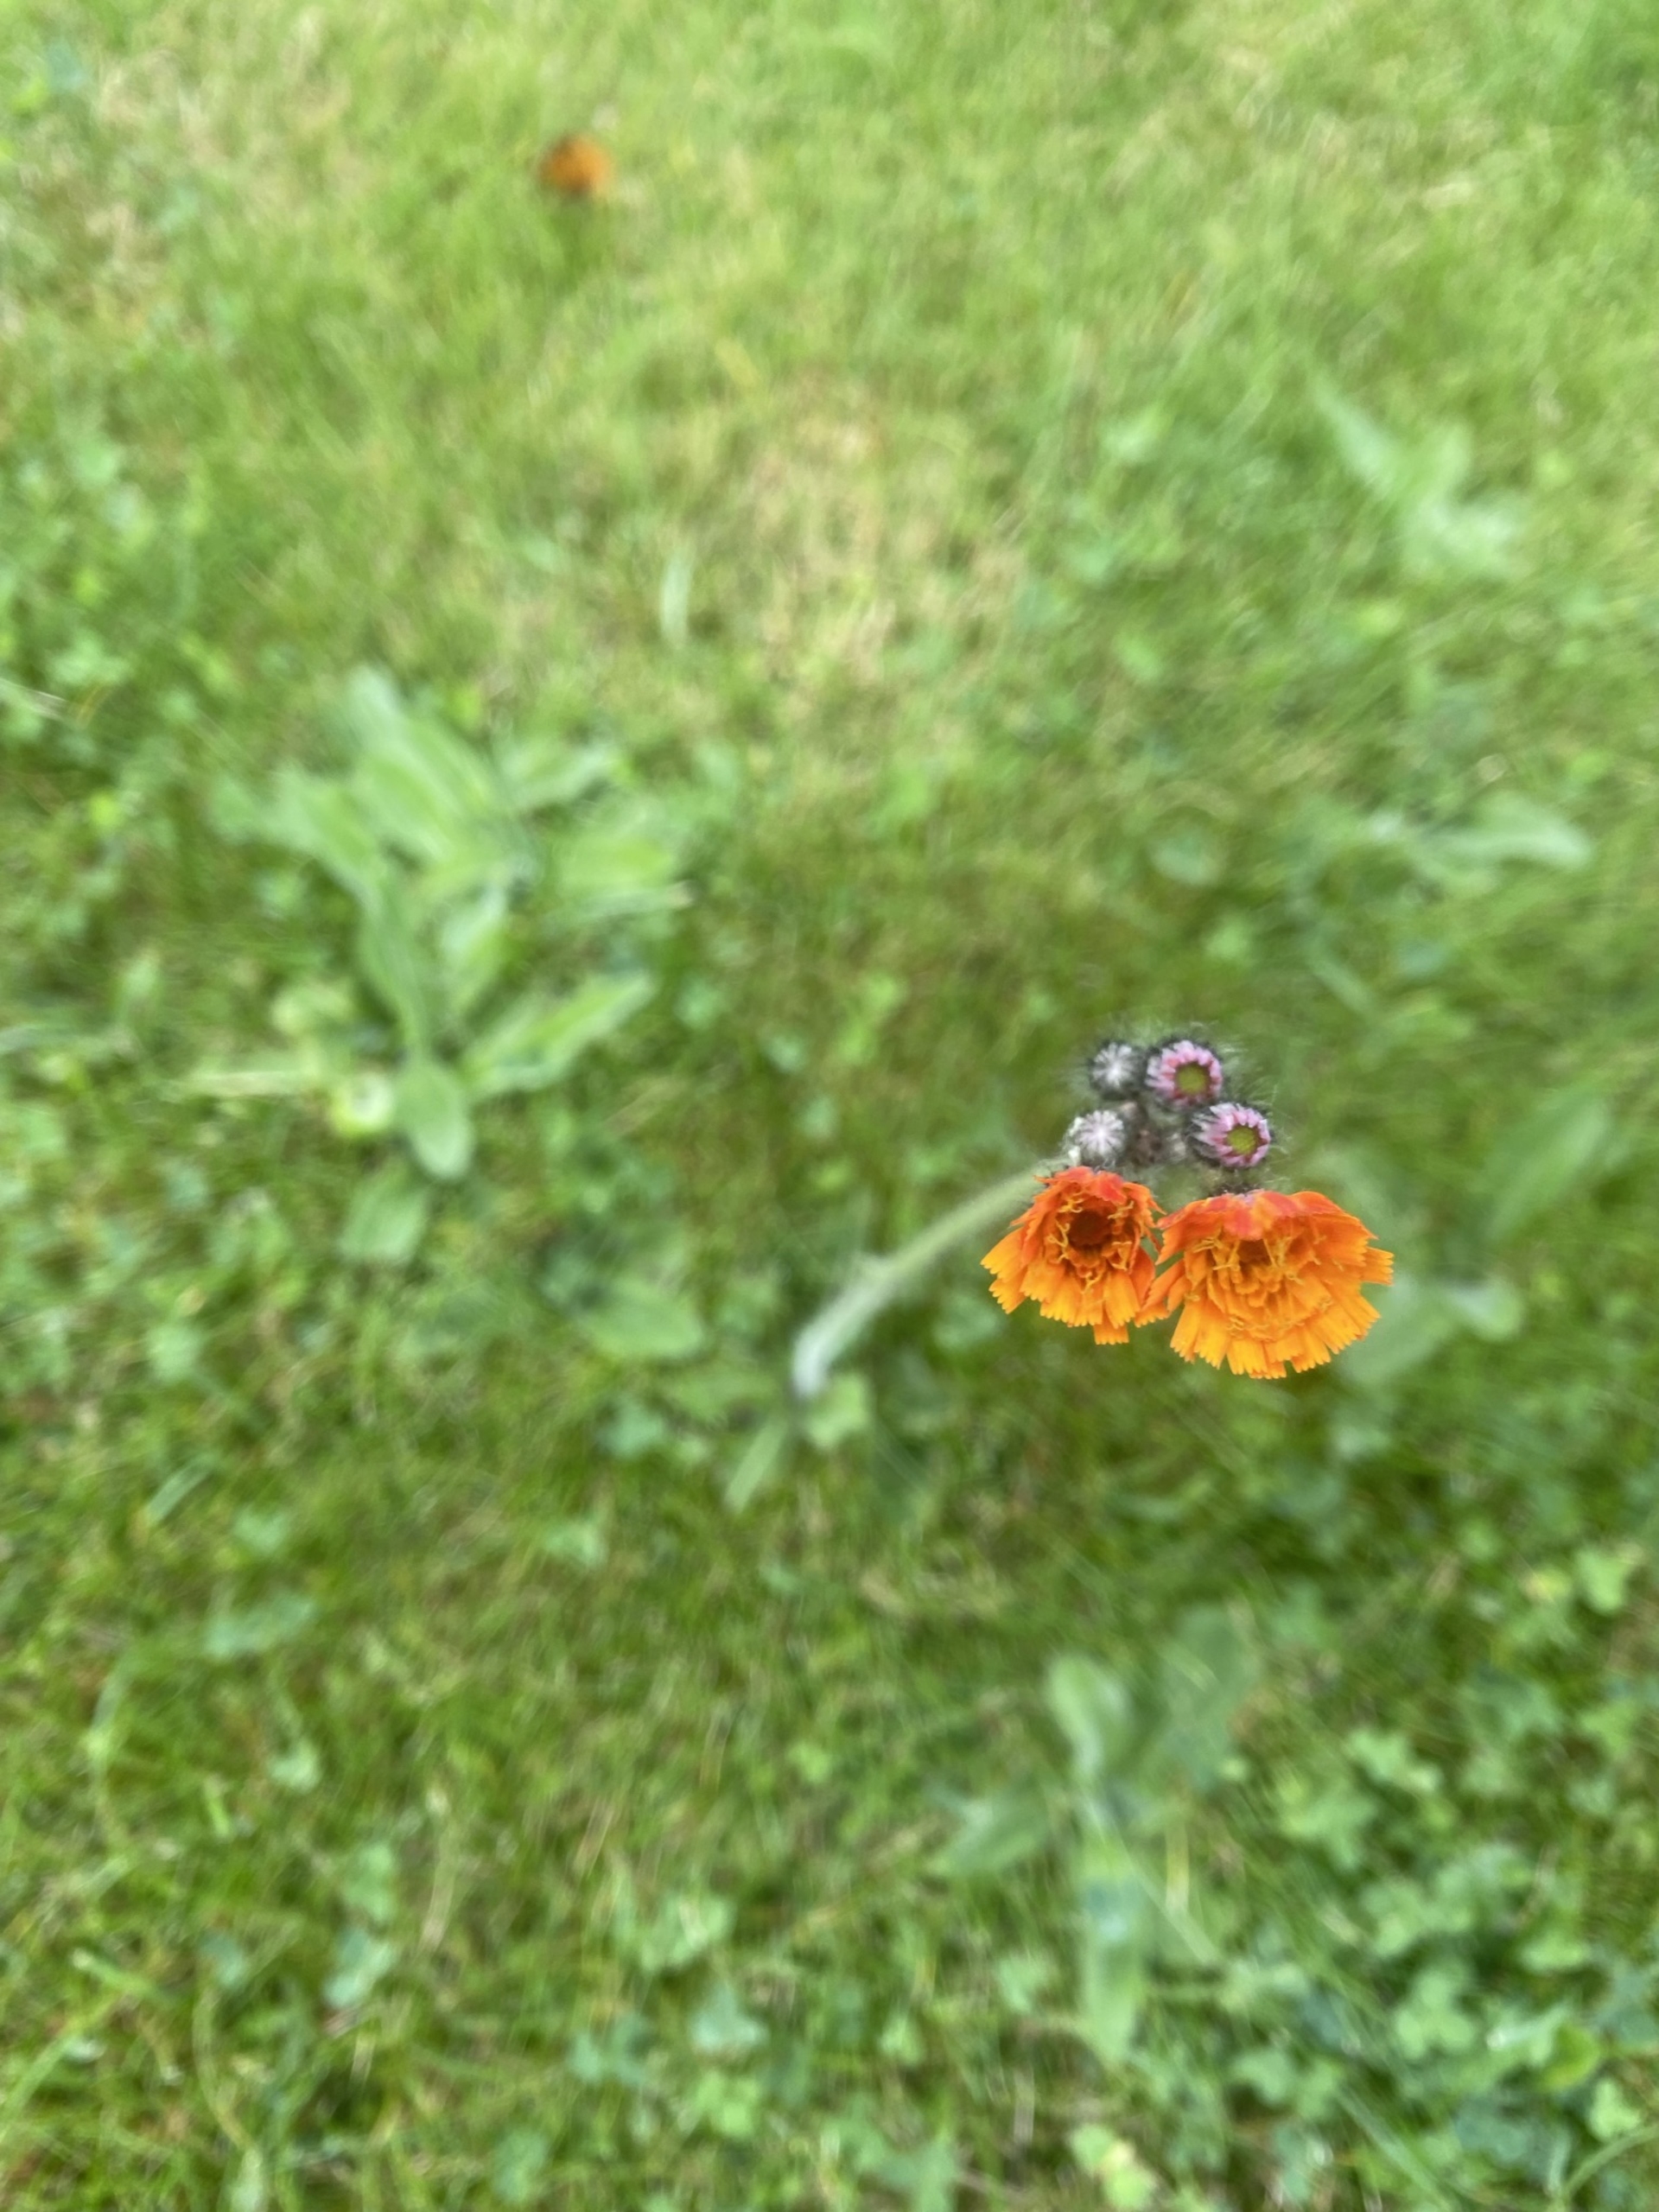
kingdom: Plantae
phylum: Tracheophyta
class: Magnoliopsida
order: Asterales
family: Asteraceae
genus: Pilosella
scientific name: Pilosella aurantiaca
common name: Pomerans-høgeurt
